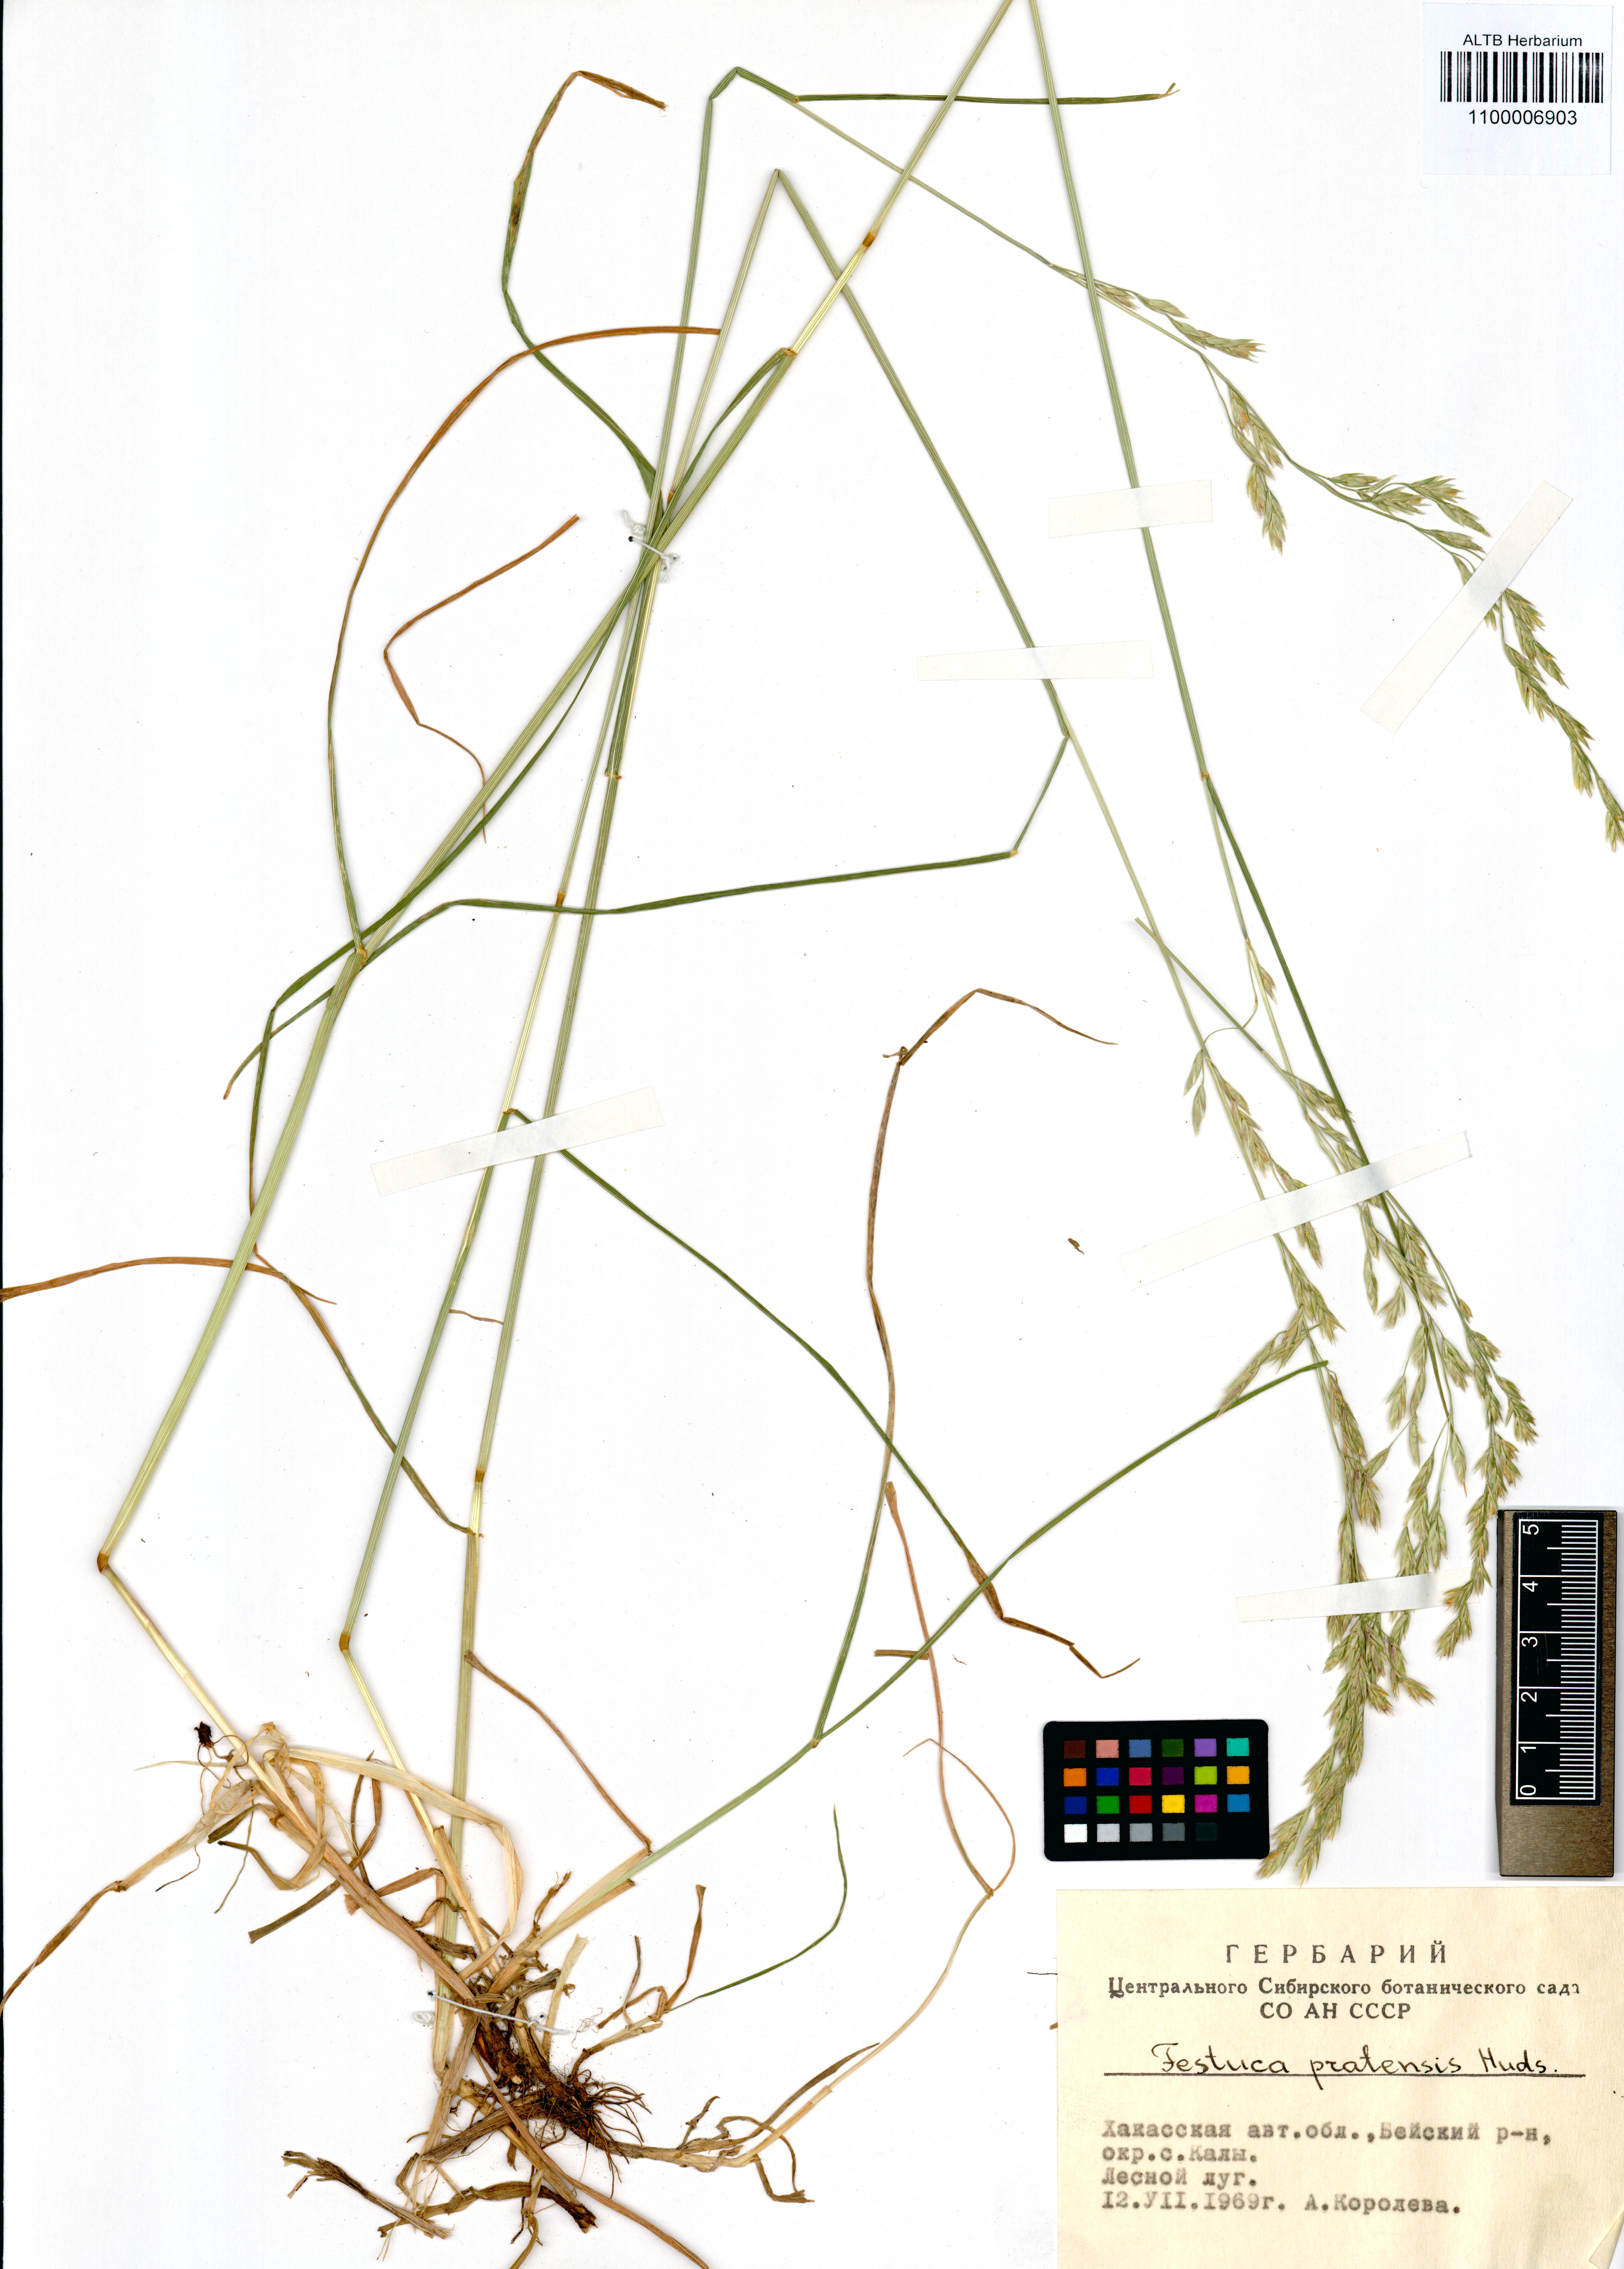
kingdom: Plantae
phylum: Tracheophyta
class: Liliopsida
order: Poales
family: Poaceae
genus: Lolium
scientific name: Lolium pratense
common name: Dover grass
